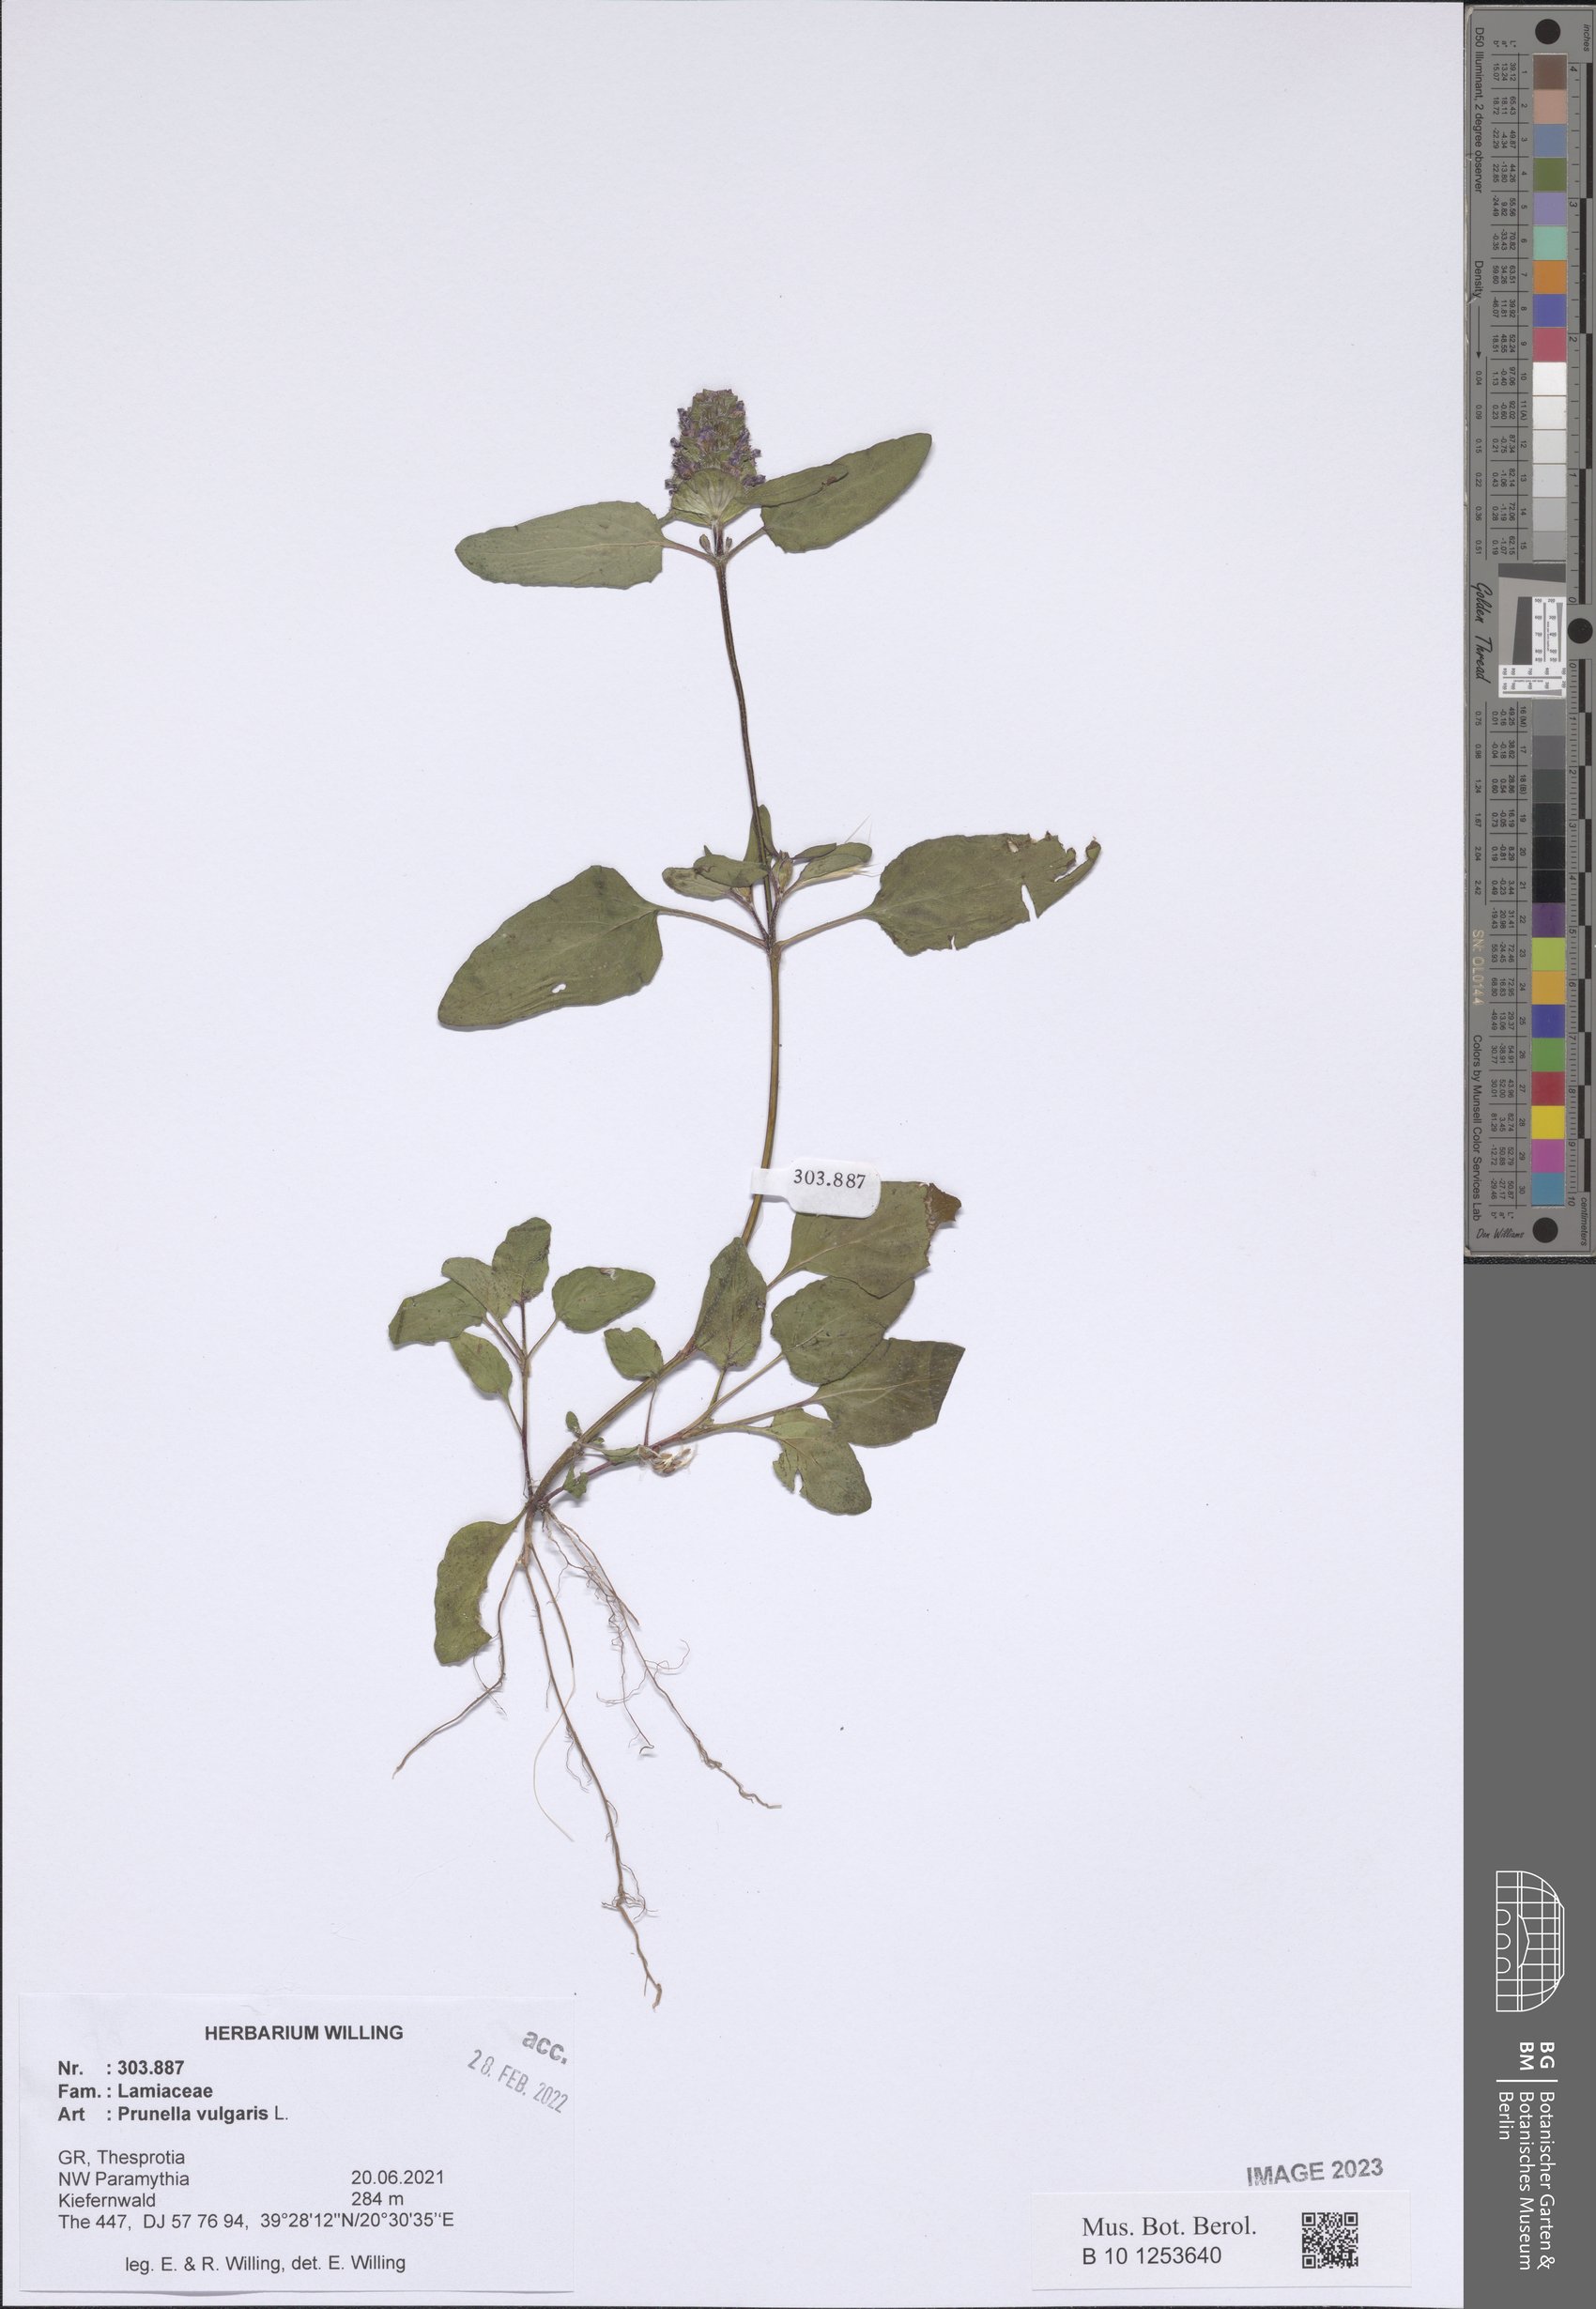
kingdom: Plantae
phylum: Tracheophyta
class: Magnoliopsida
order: Lamiales
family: Lamiaceae
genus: Prunella
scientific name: Prunella vulgaris
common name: Heal-all
